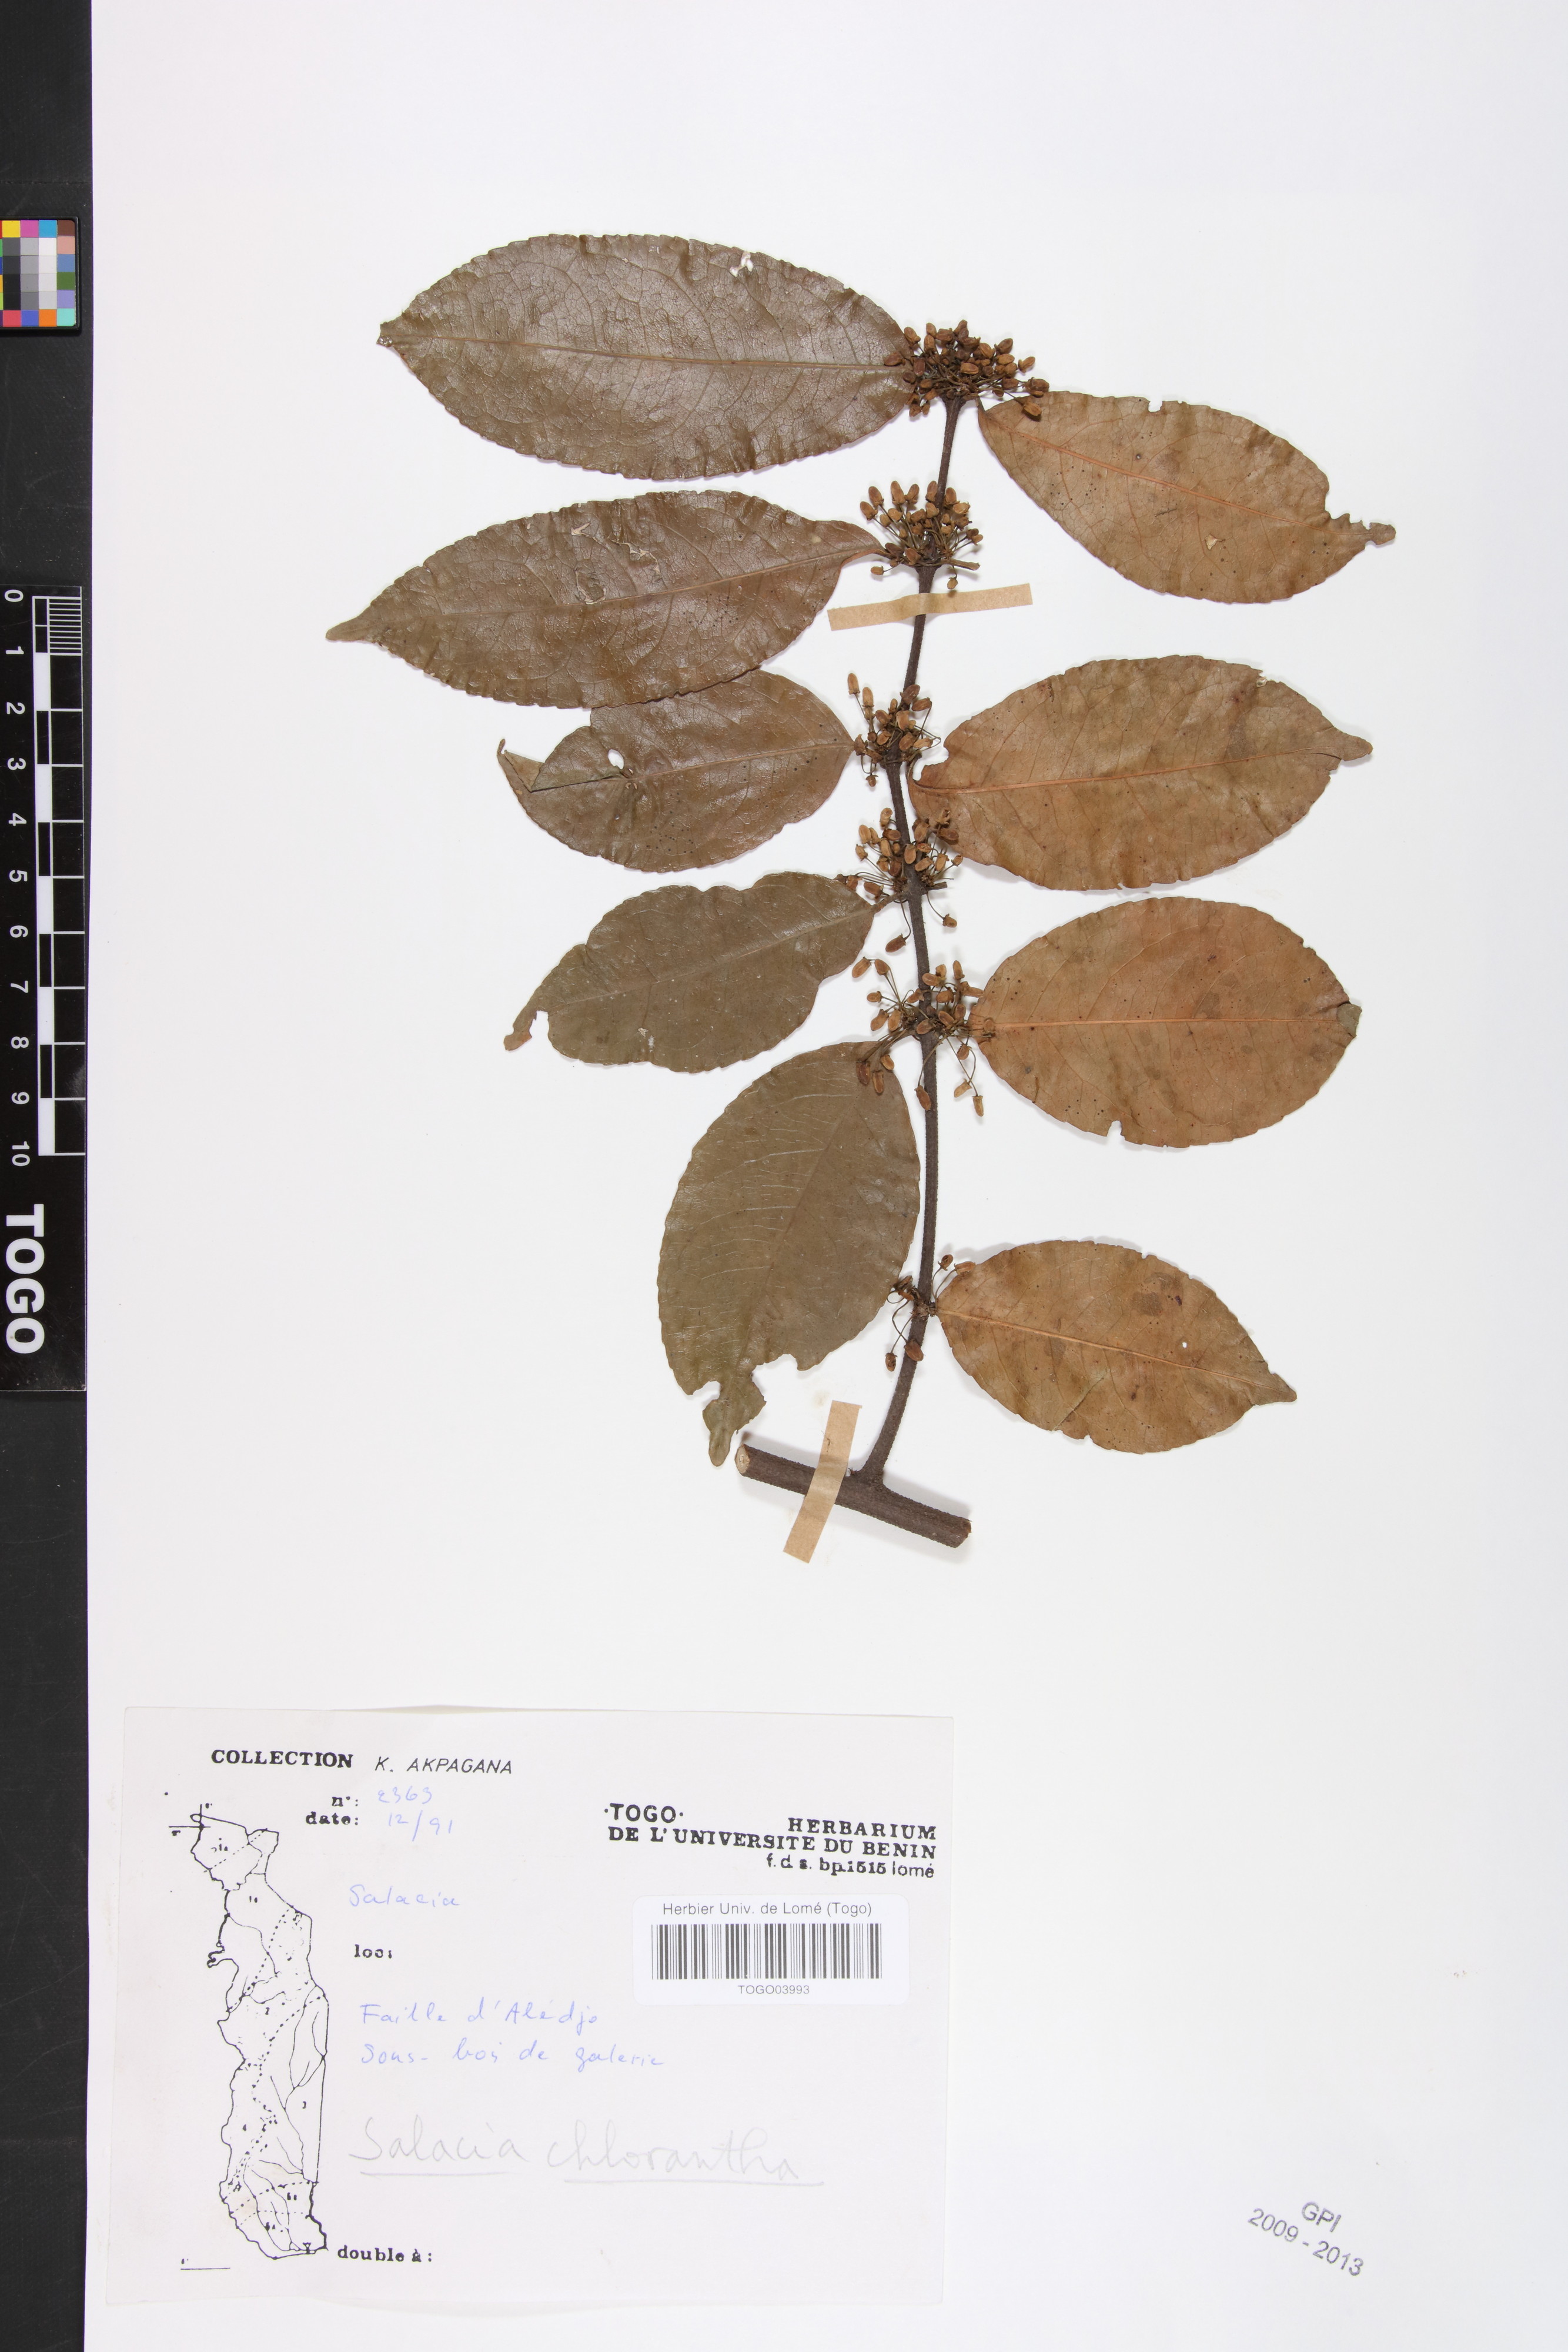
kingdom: Plantae
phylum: Tracheophyta
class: Magnoliopsida
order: Celastrales
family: Celastraceae
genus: Salacia
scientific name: Salacia chlorantha
